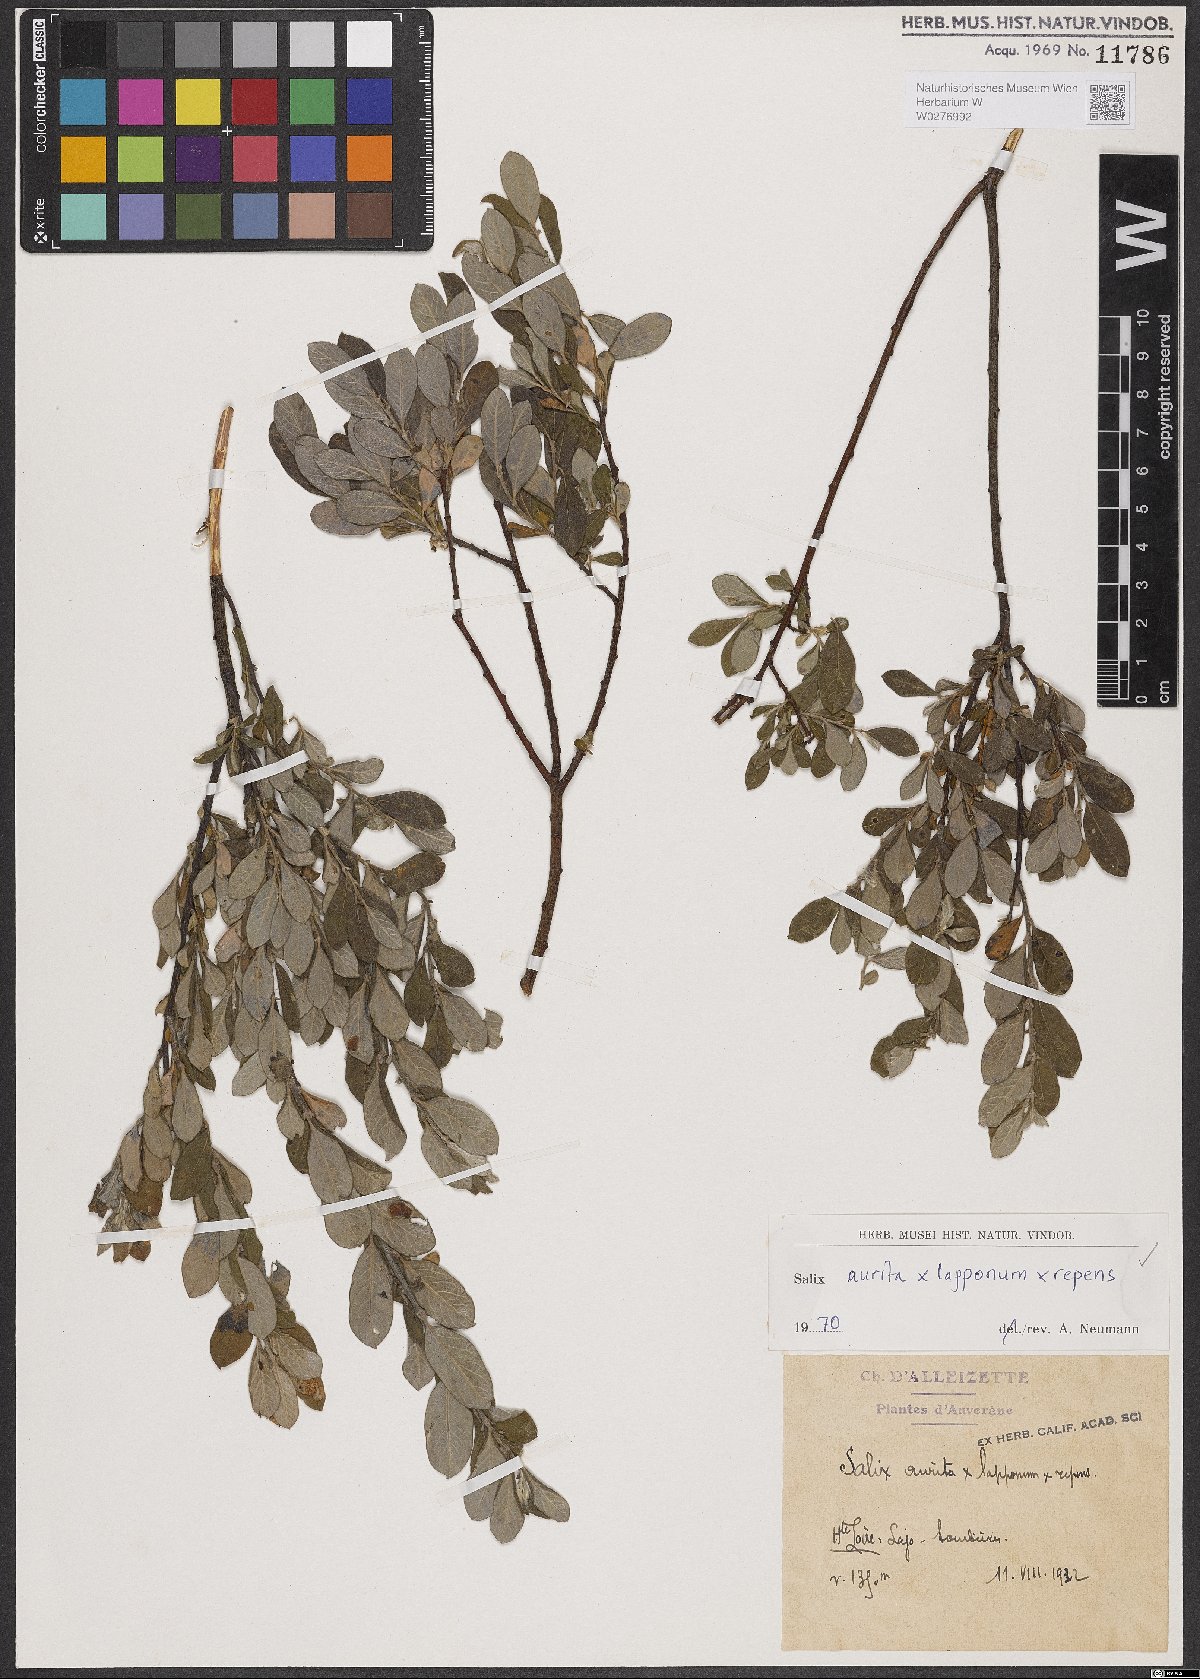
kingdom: Plantae
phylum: Tracheophyta
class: Magnoliopsida
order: Malpighiales
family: Salicaceae
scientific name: Salicaceae
